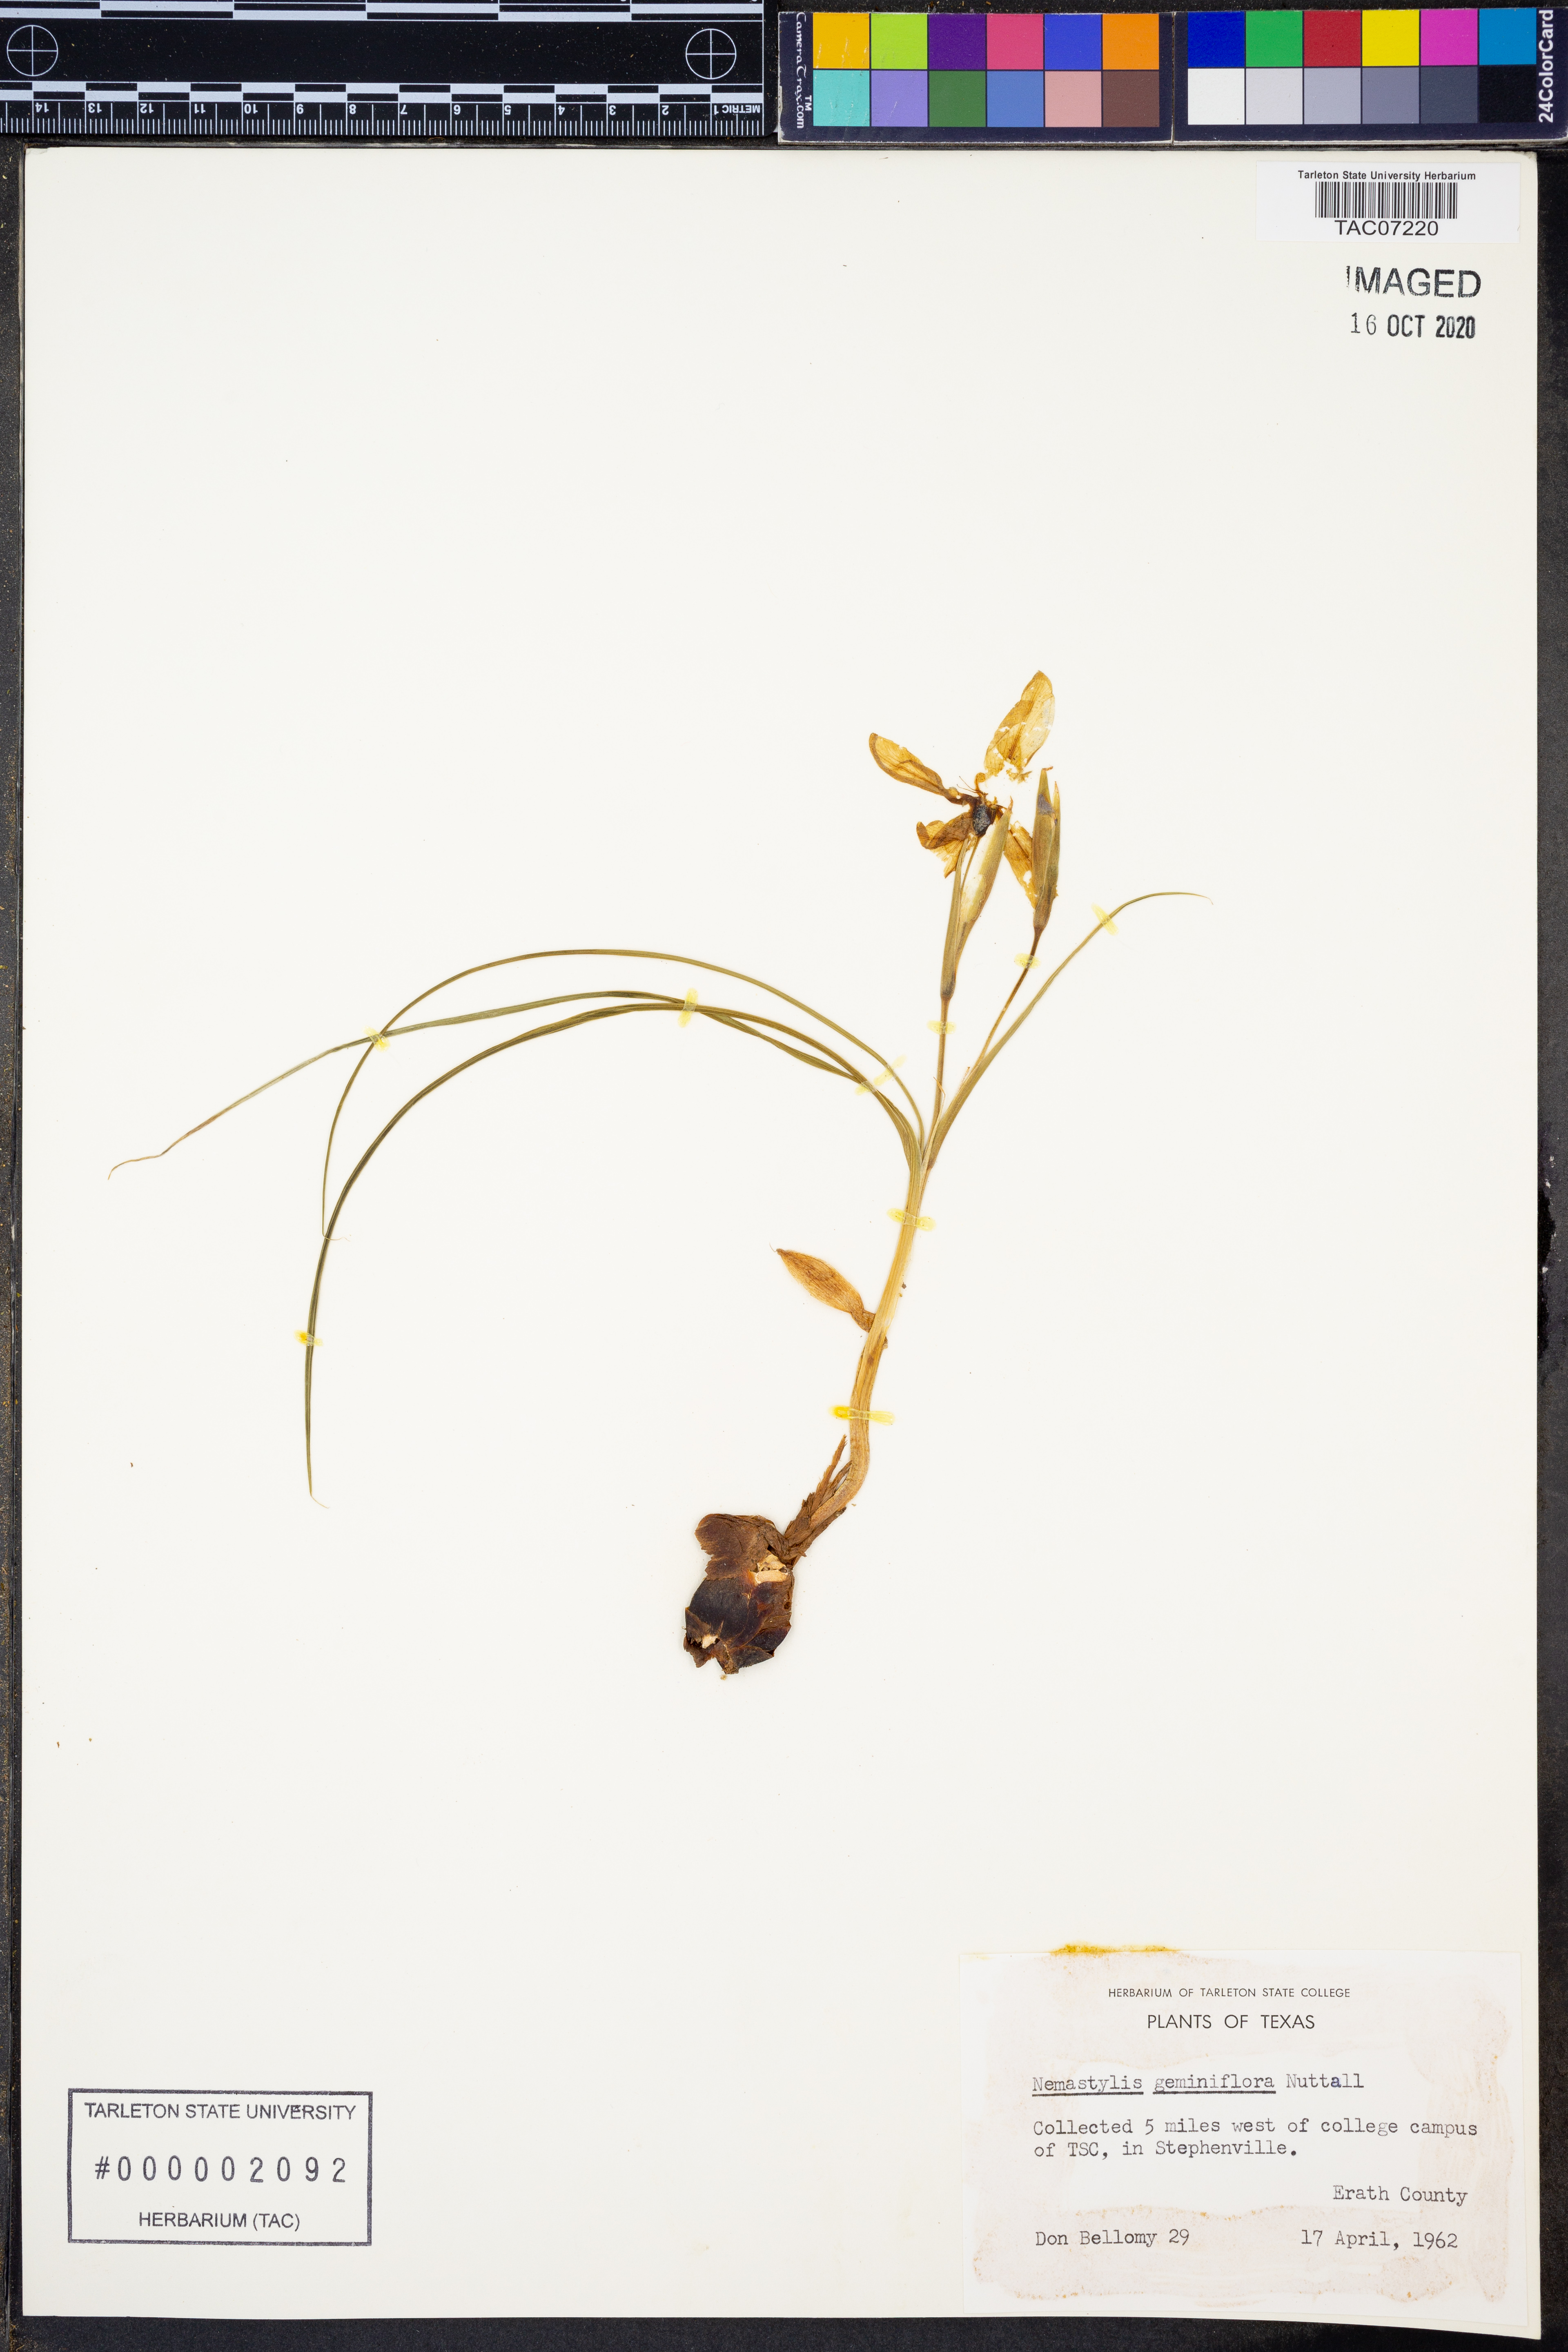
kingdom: Plantae
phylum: Tracheophyta
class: Liliopsida
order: Asparagales
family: Iridaceae
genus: Nemastylis
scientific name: Nemastylis geminiflora
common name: Prairie celestial
